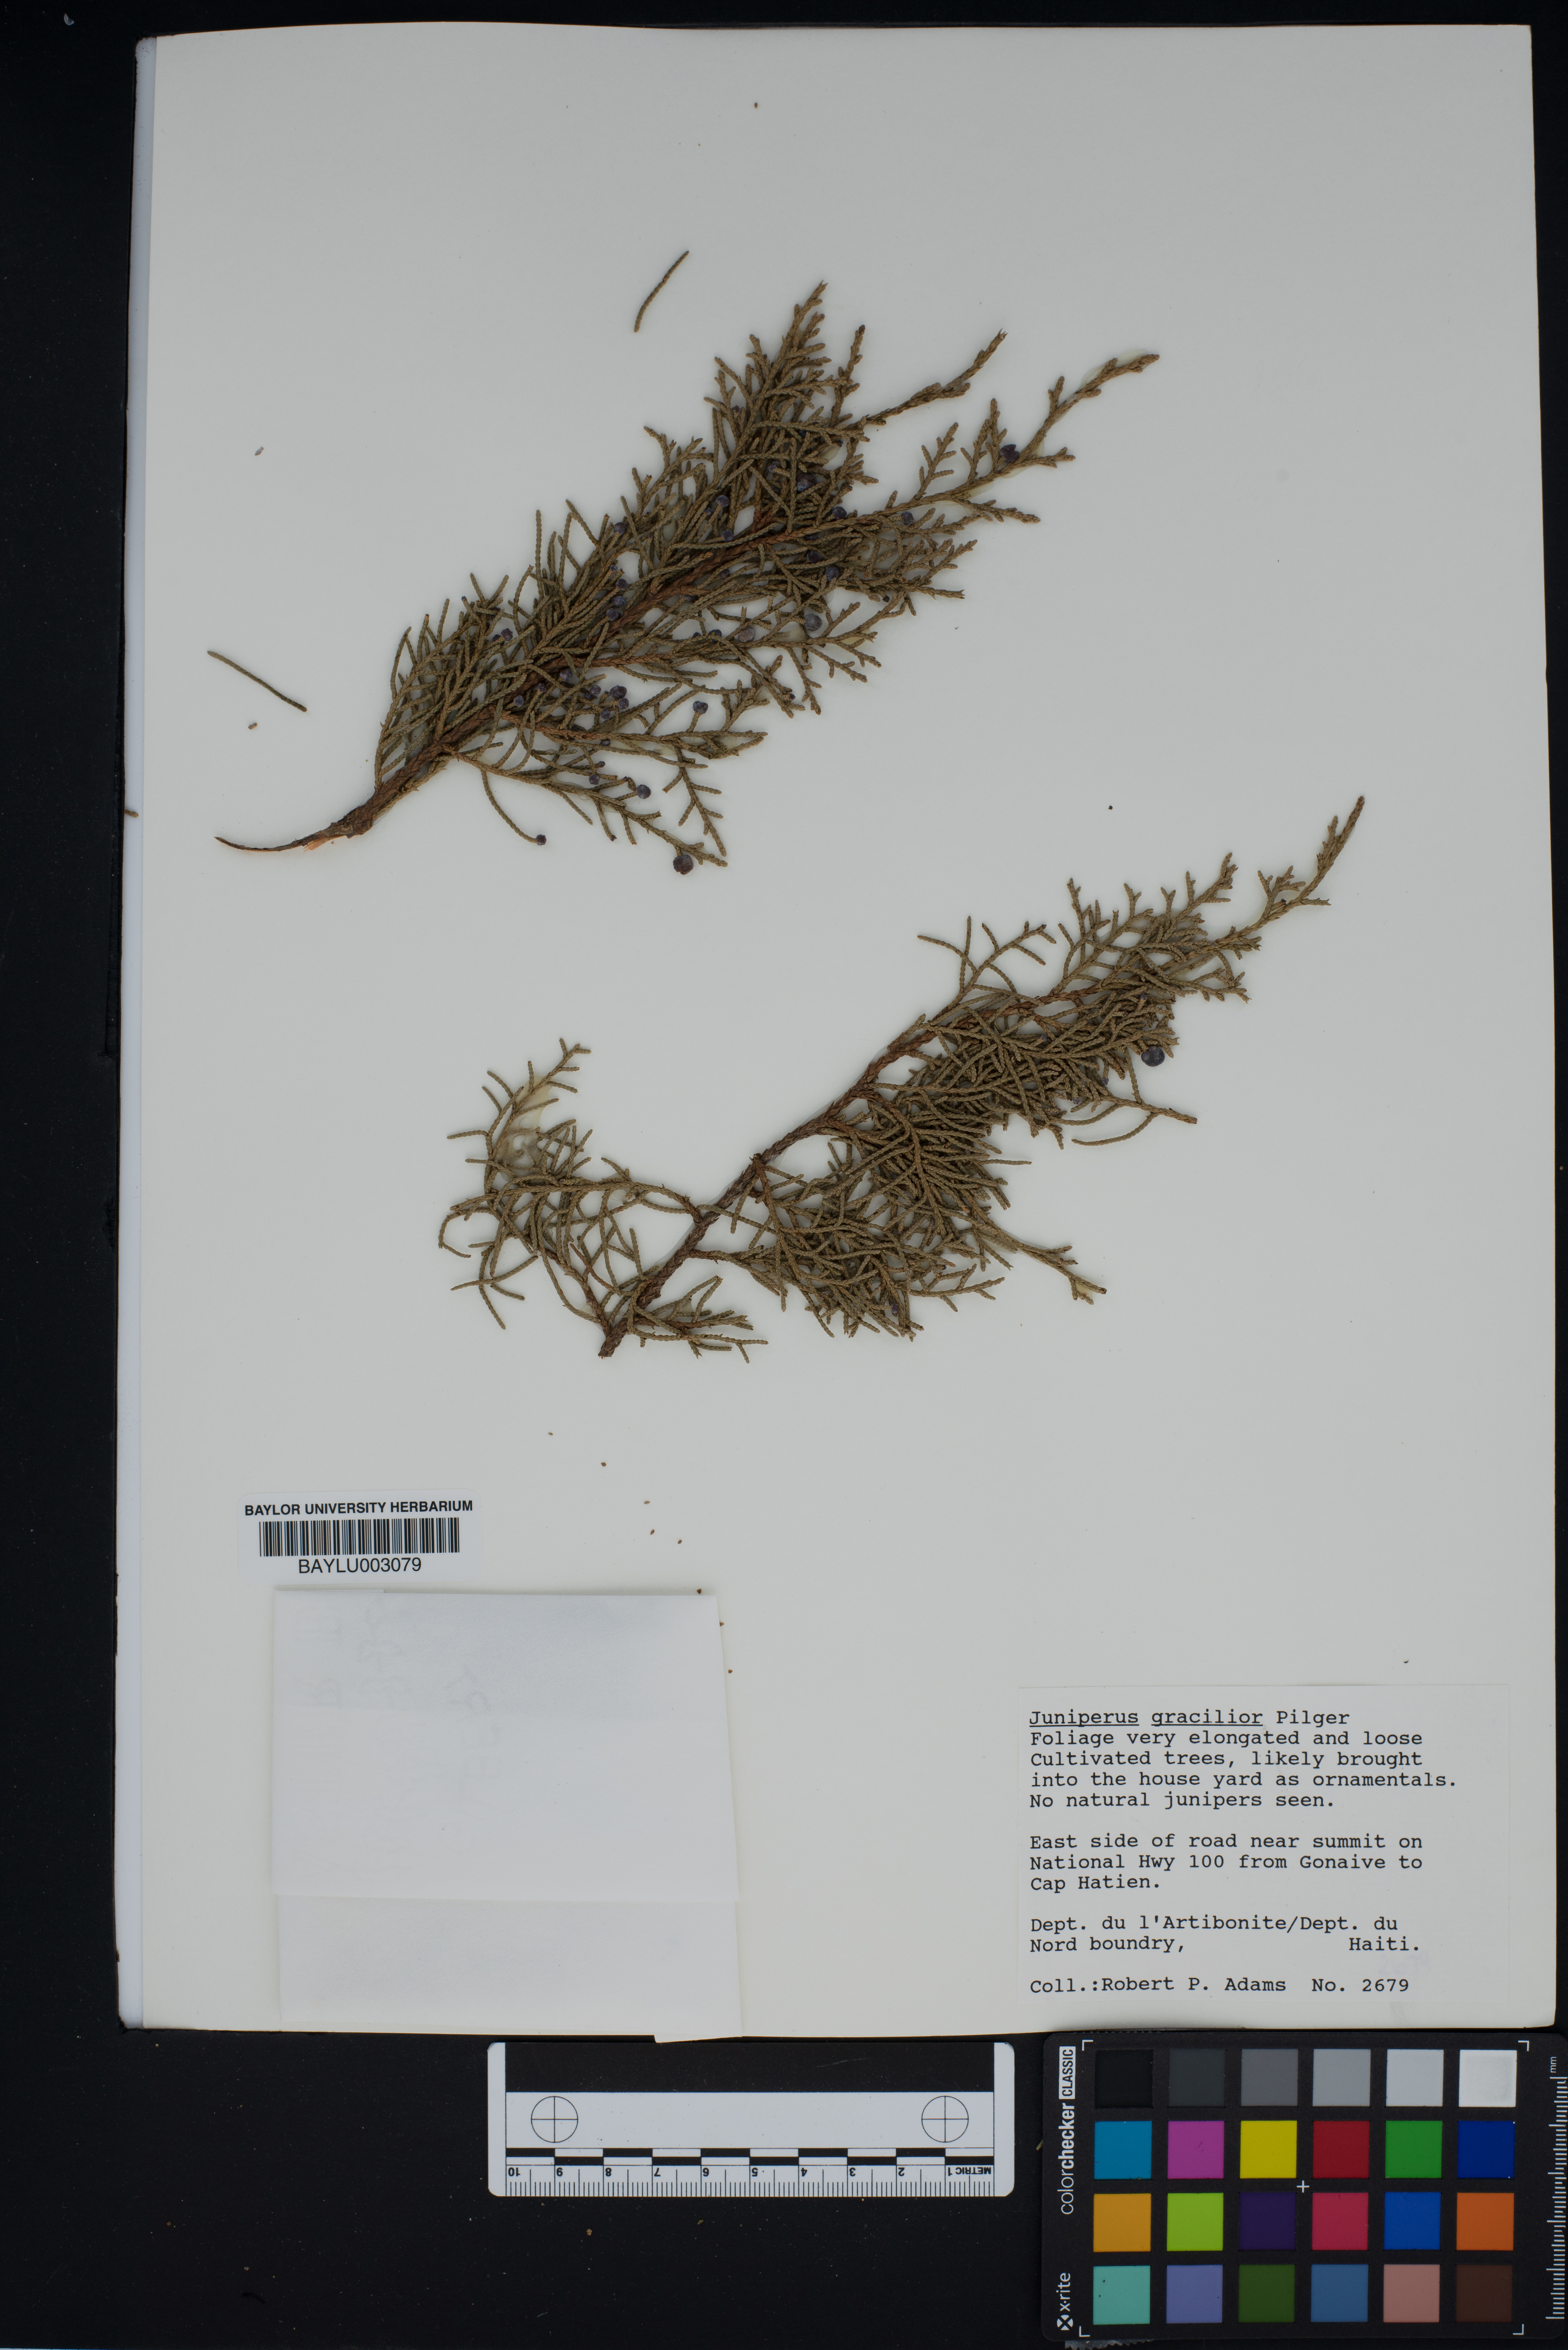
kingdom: Plantae
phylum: Tracheophyta
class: Pinopsida
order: Pinales
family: Cupressaceae
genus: Juniperus
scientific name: Juniperus gracilior
